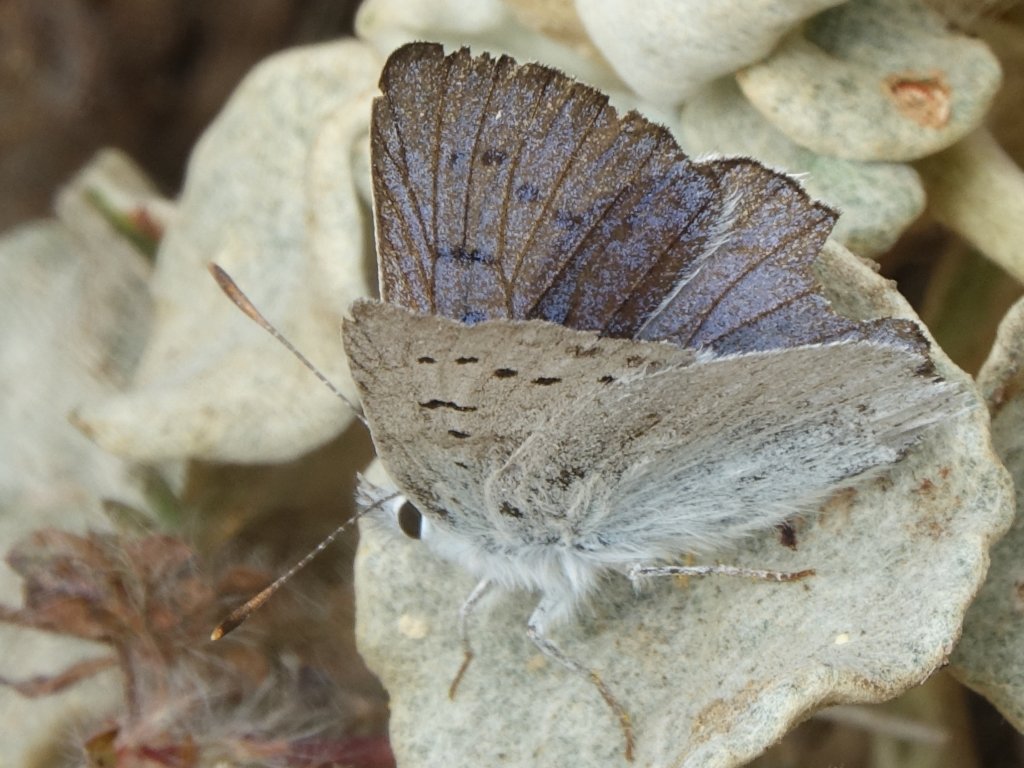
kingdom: Animalia
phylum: Arthropoda
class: Insecta
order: Lepidoptera
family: Lycaenidae
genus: Lycaena
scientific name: Lycaena heteronea
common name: Blue Copper
